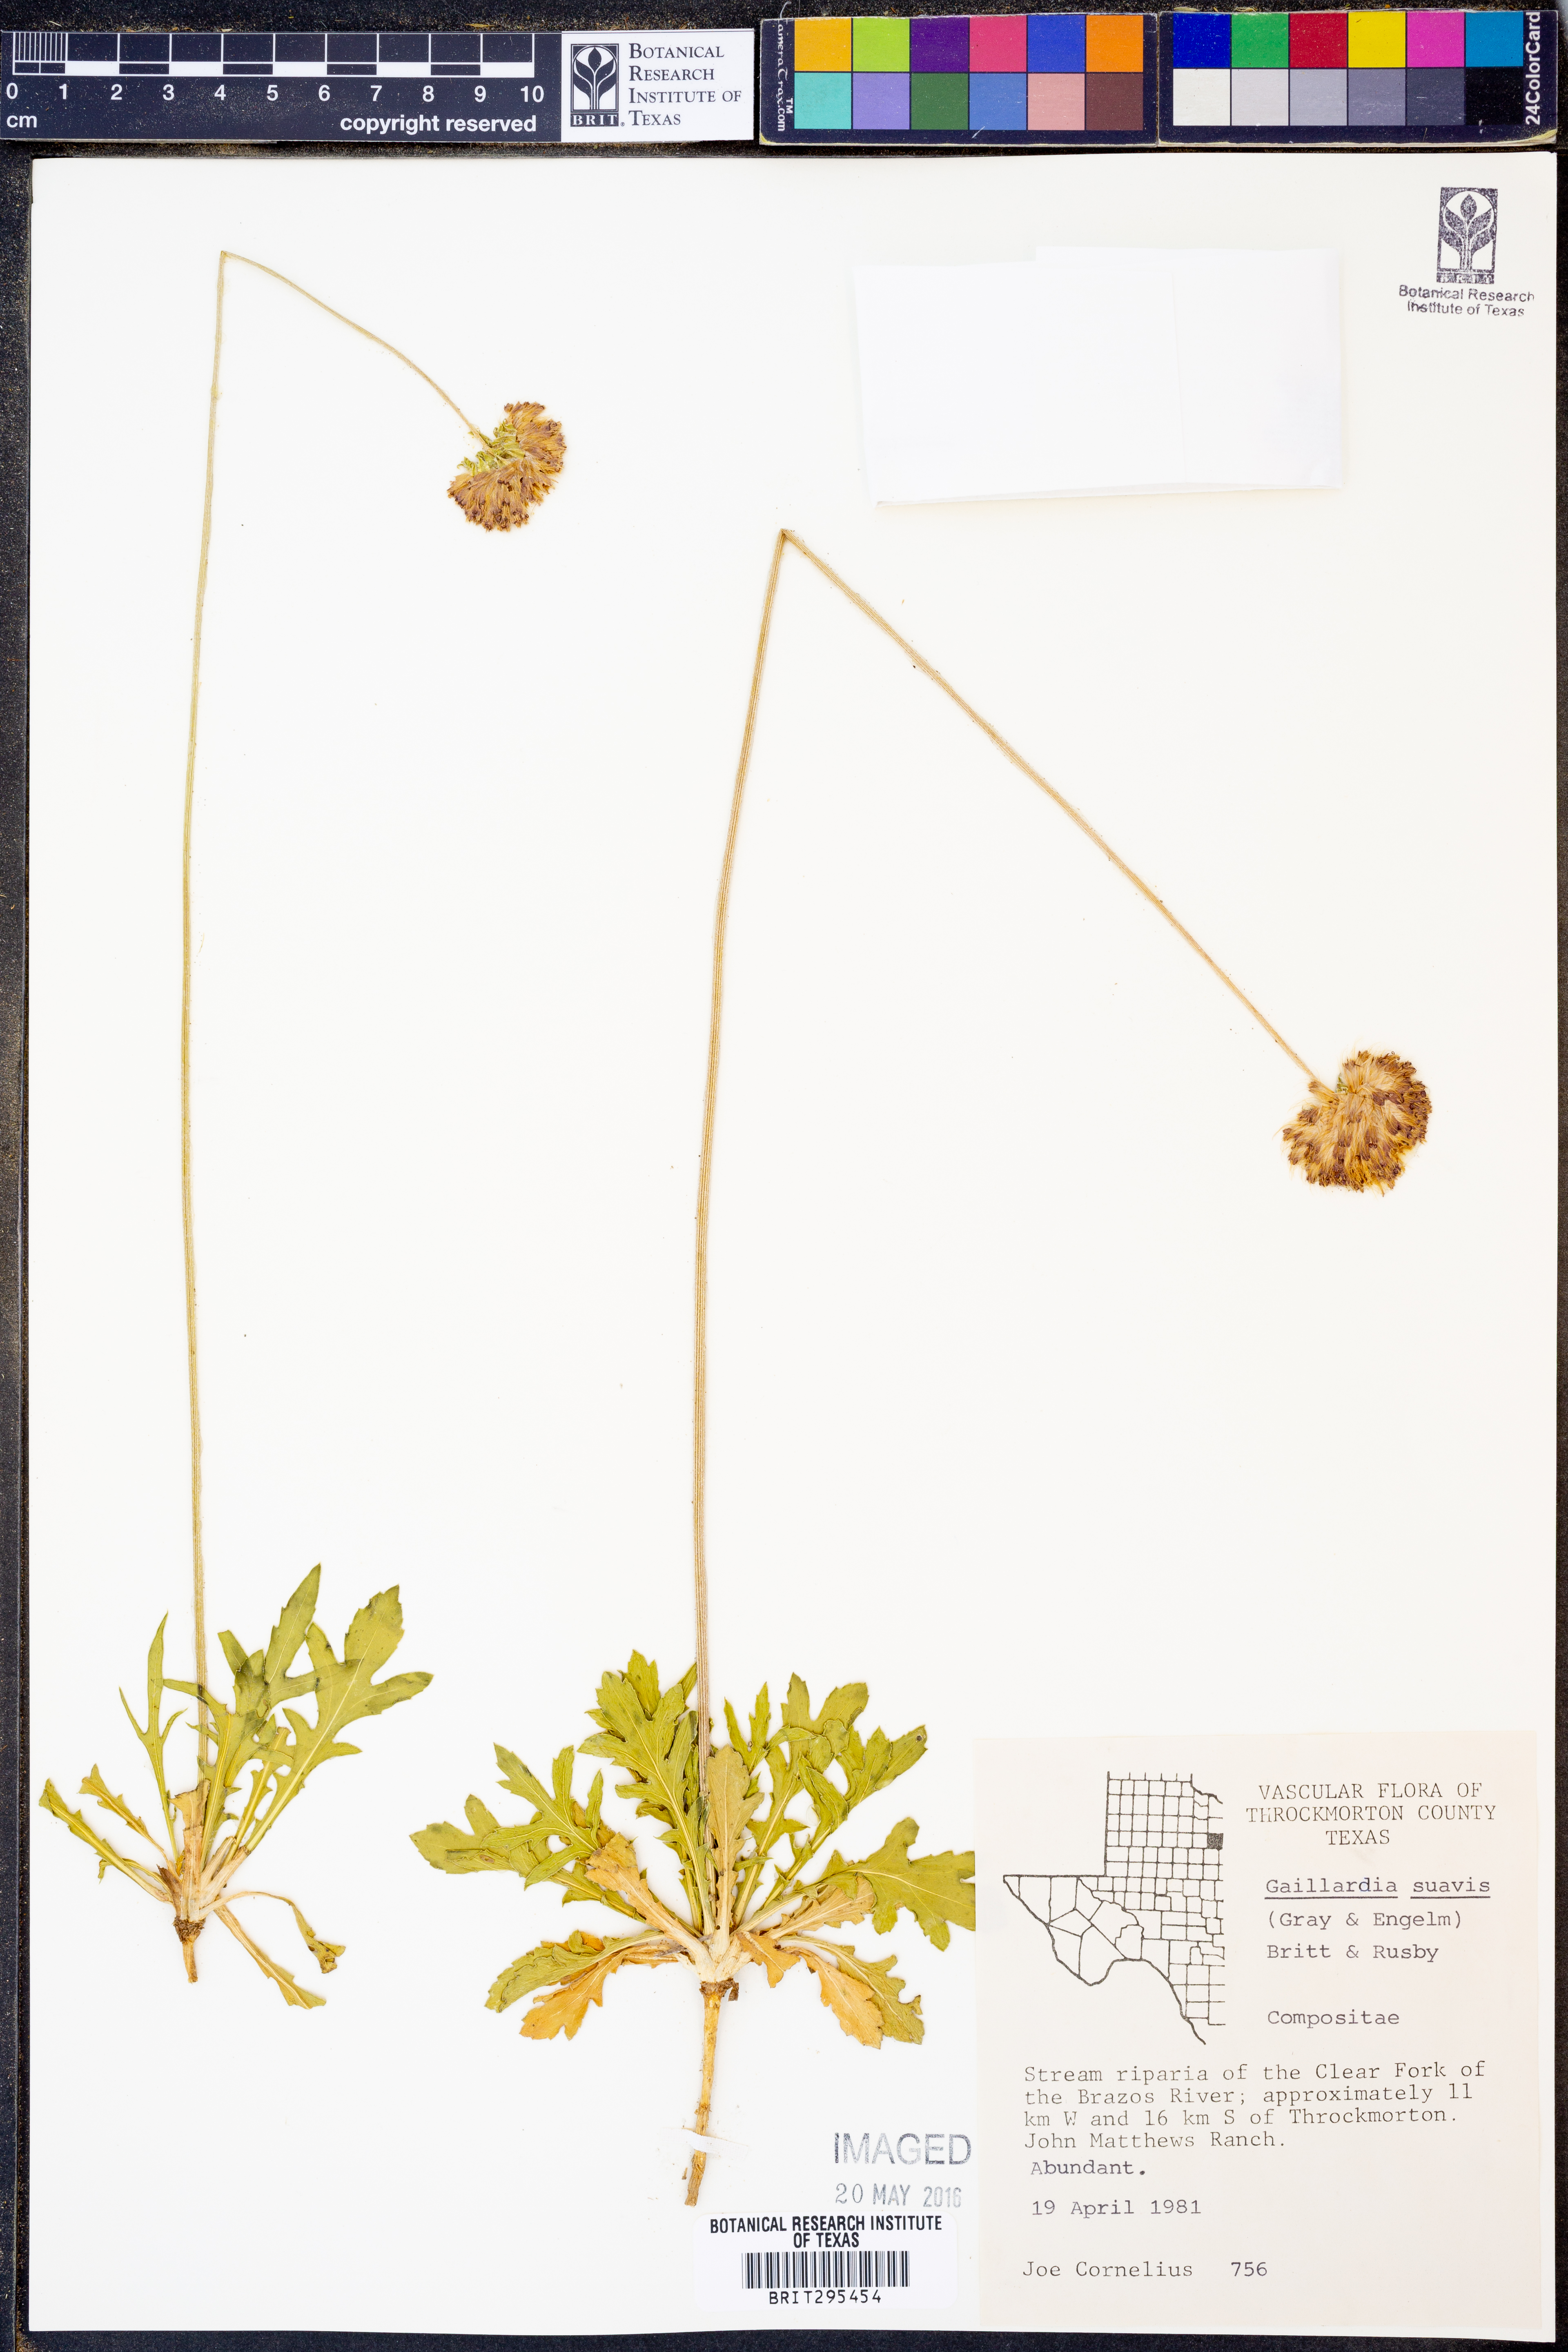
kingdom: Plantae
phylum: Tracheophyta
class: Magnoliopsida
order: Asterales
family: Asteraceae
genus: Gaillardia
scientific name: Gaillardia suavis
